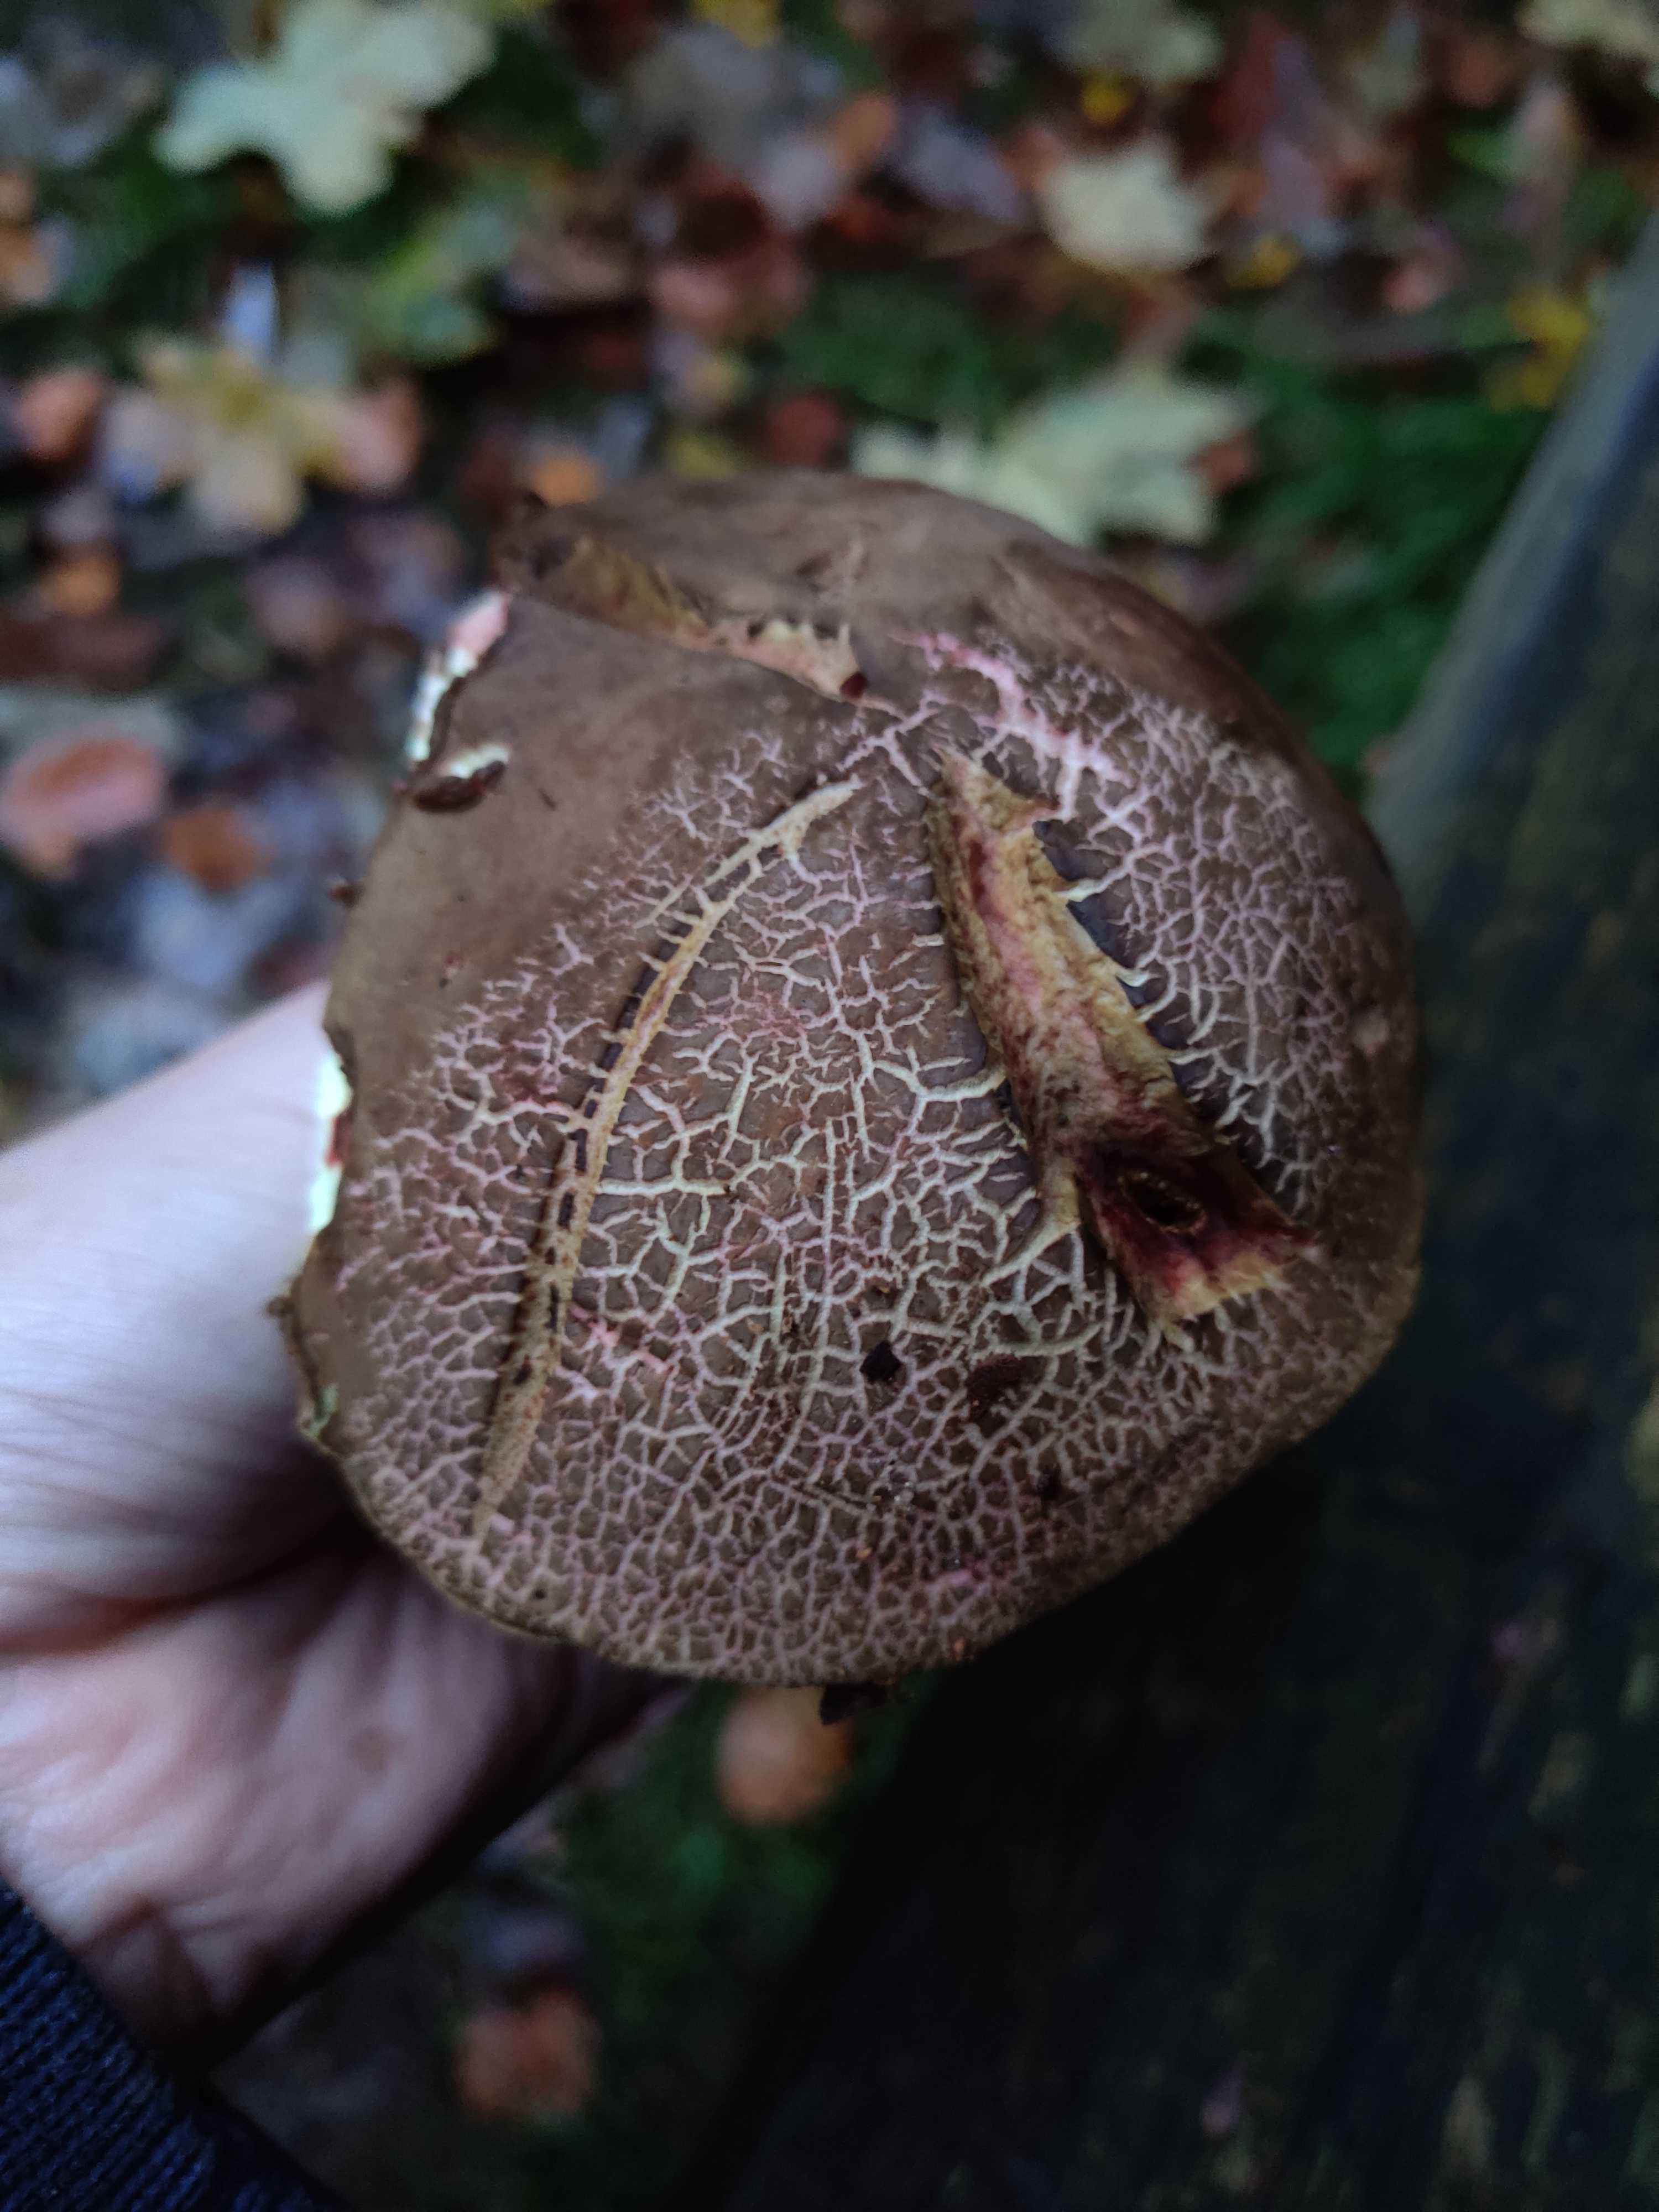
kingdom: Fungi
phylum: Basidiomycota
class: Agaricomycetes
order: Boletales
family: Boletaceae
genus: Xerocomellus
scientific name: Xerocomellus
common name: dværgrørhat
